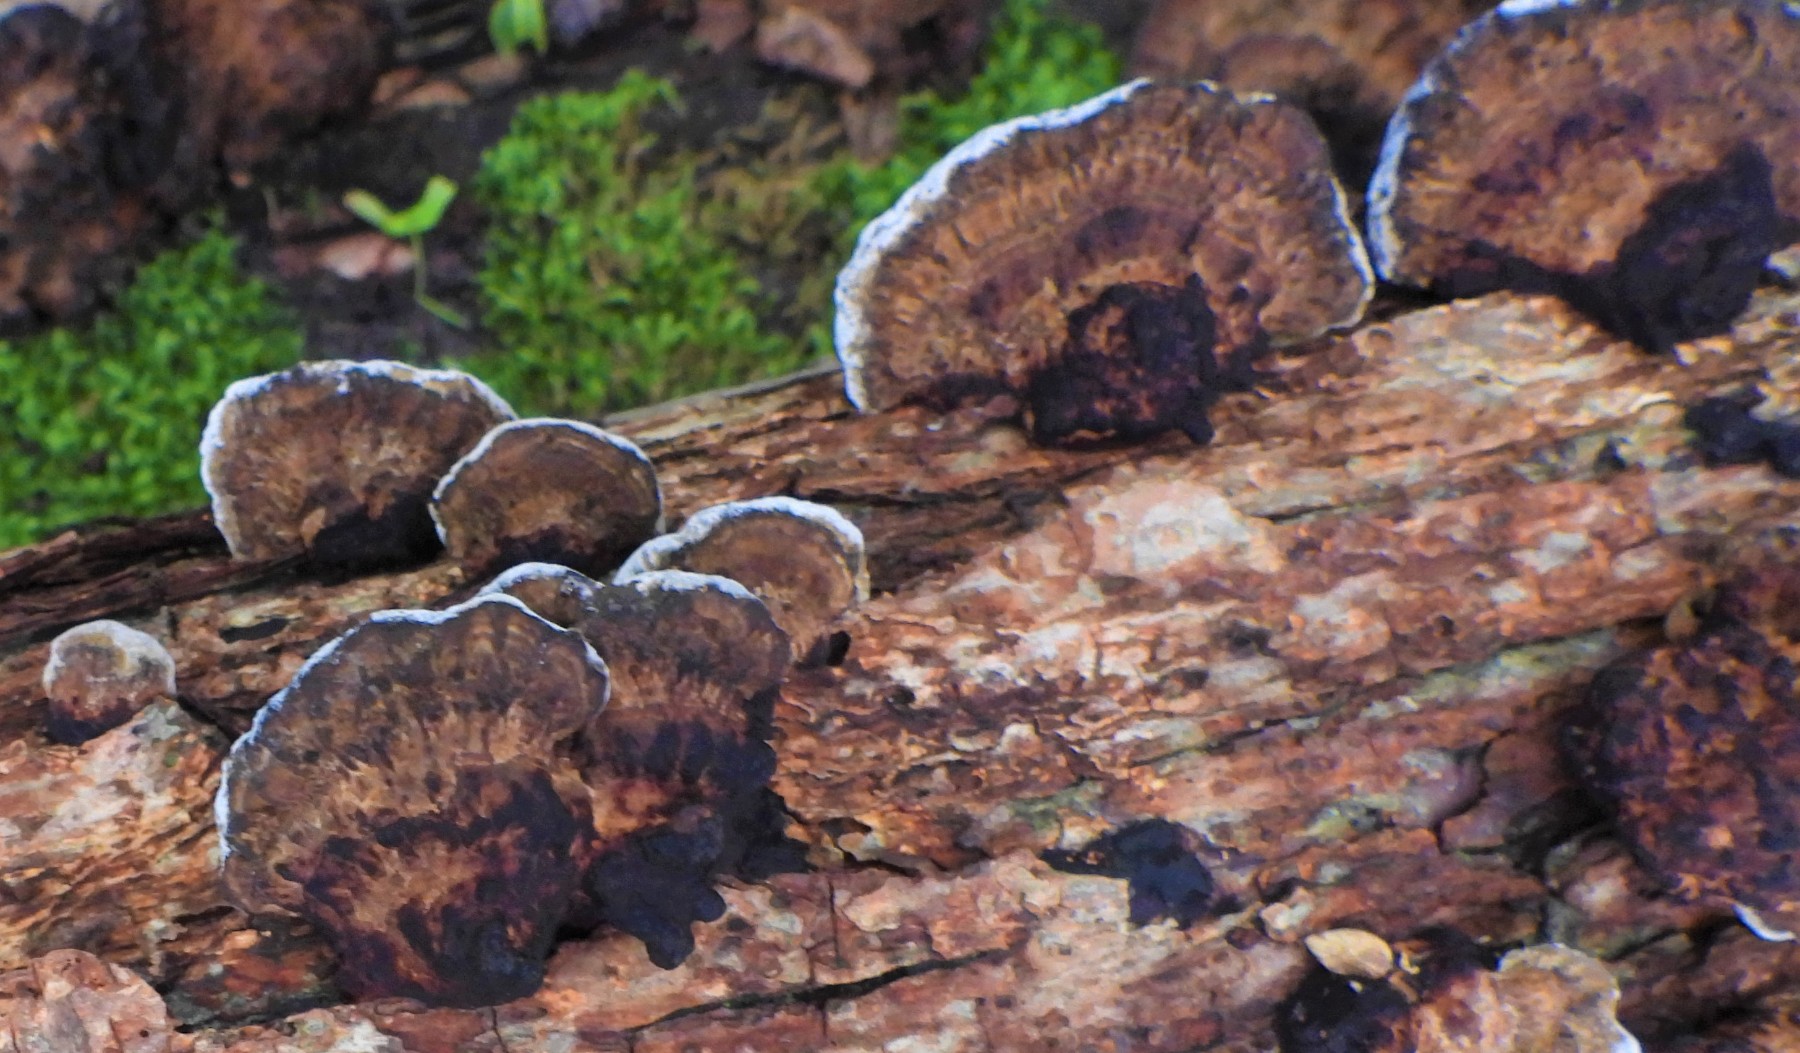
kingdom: Fungi
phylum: Basidiomycota
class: Agaricomycetes
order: Polyporales
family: Polyporaceae
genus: Daedaleopsis
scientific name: Daedaleopsis confragosa
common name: rødmende læderporesvamp
